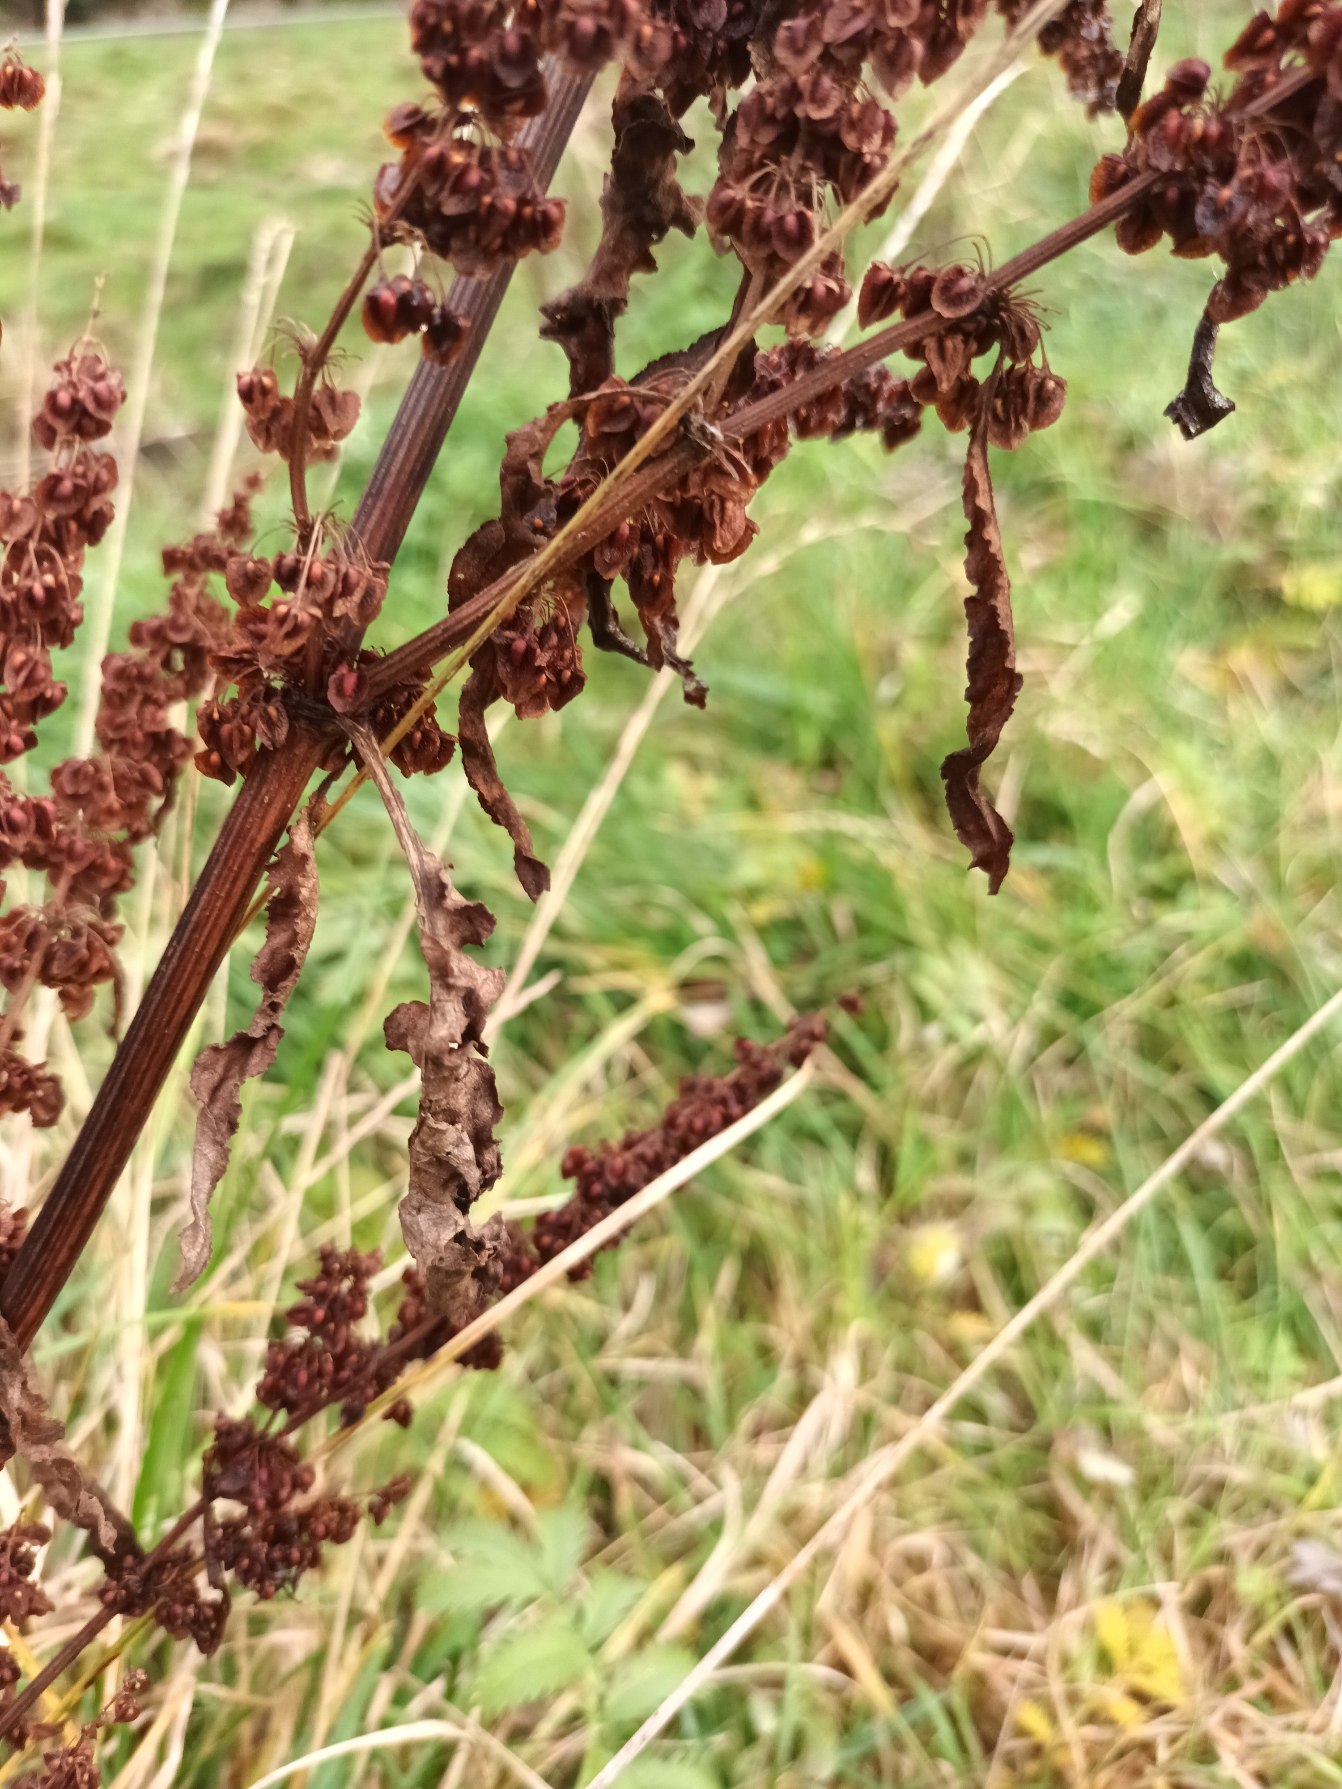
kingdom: Plantae
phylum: Tracheophyta
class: Magnoliopsida
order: Caryophyllales
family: Polygonaceae
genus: Rumex
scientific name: Rumex crispus
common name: Kruset skræppe
